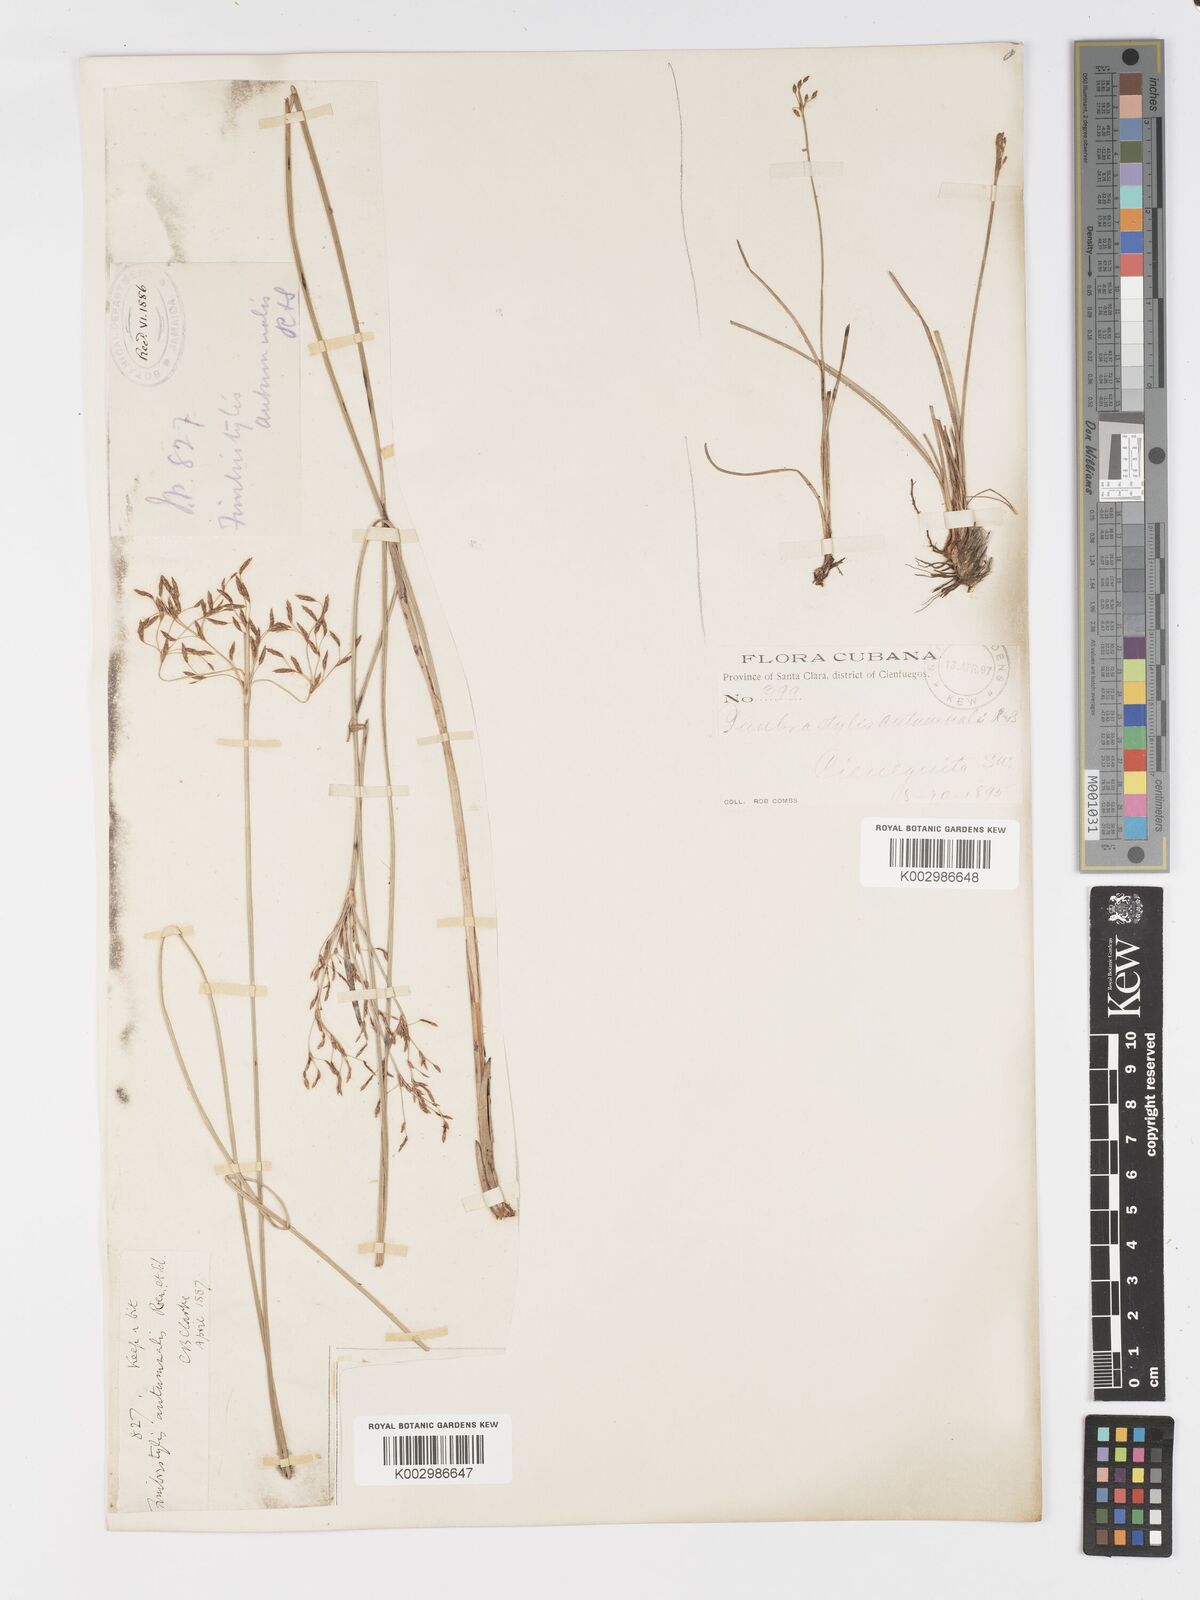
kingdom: Plantae
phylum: Tracheophyta
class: Liliopsida
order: Poales
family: Cyperaceae
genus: Fimbristylis
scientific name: Fimbristylis autumnalis
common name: Slender fimbristylis
